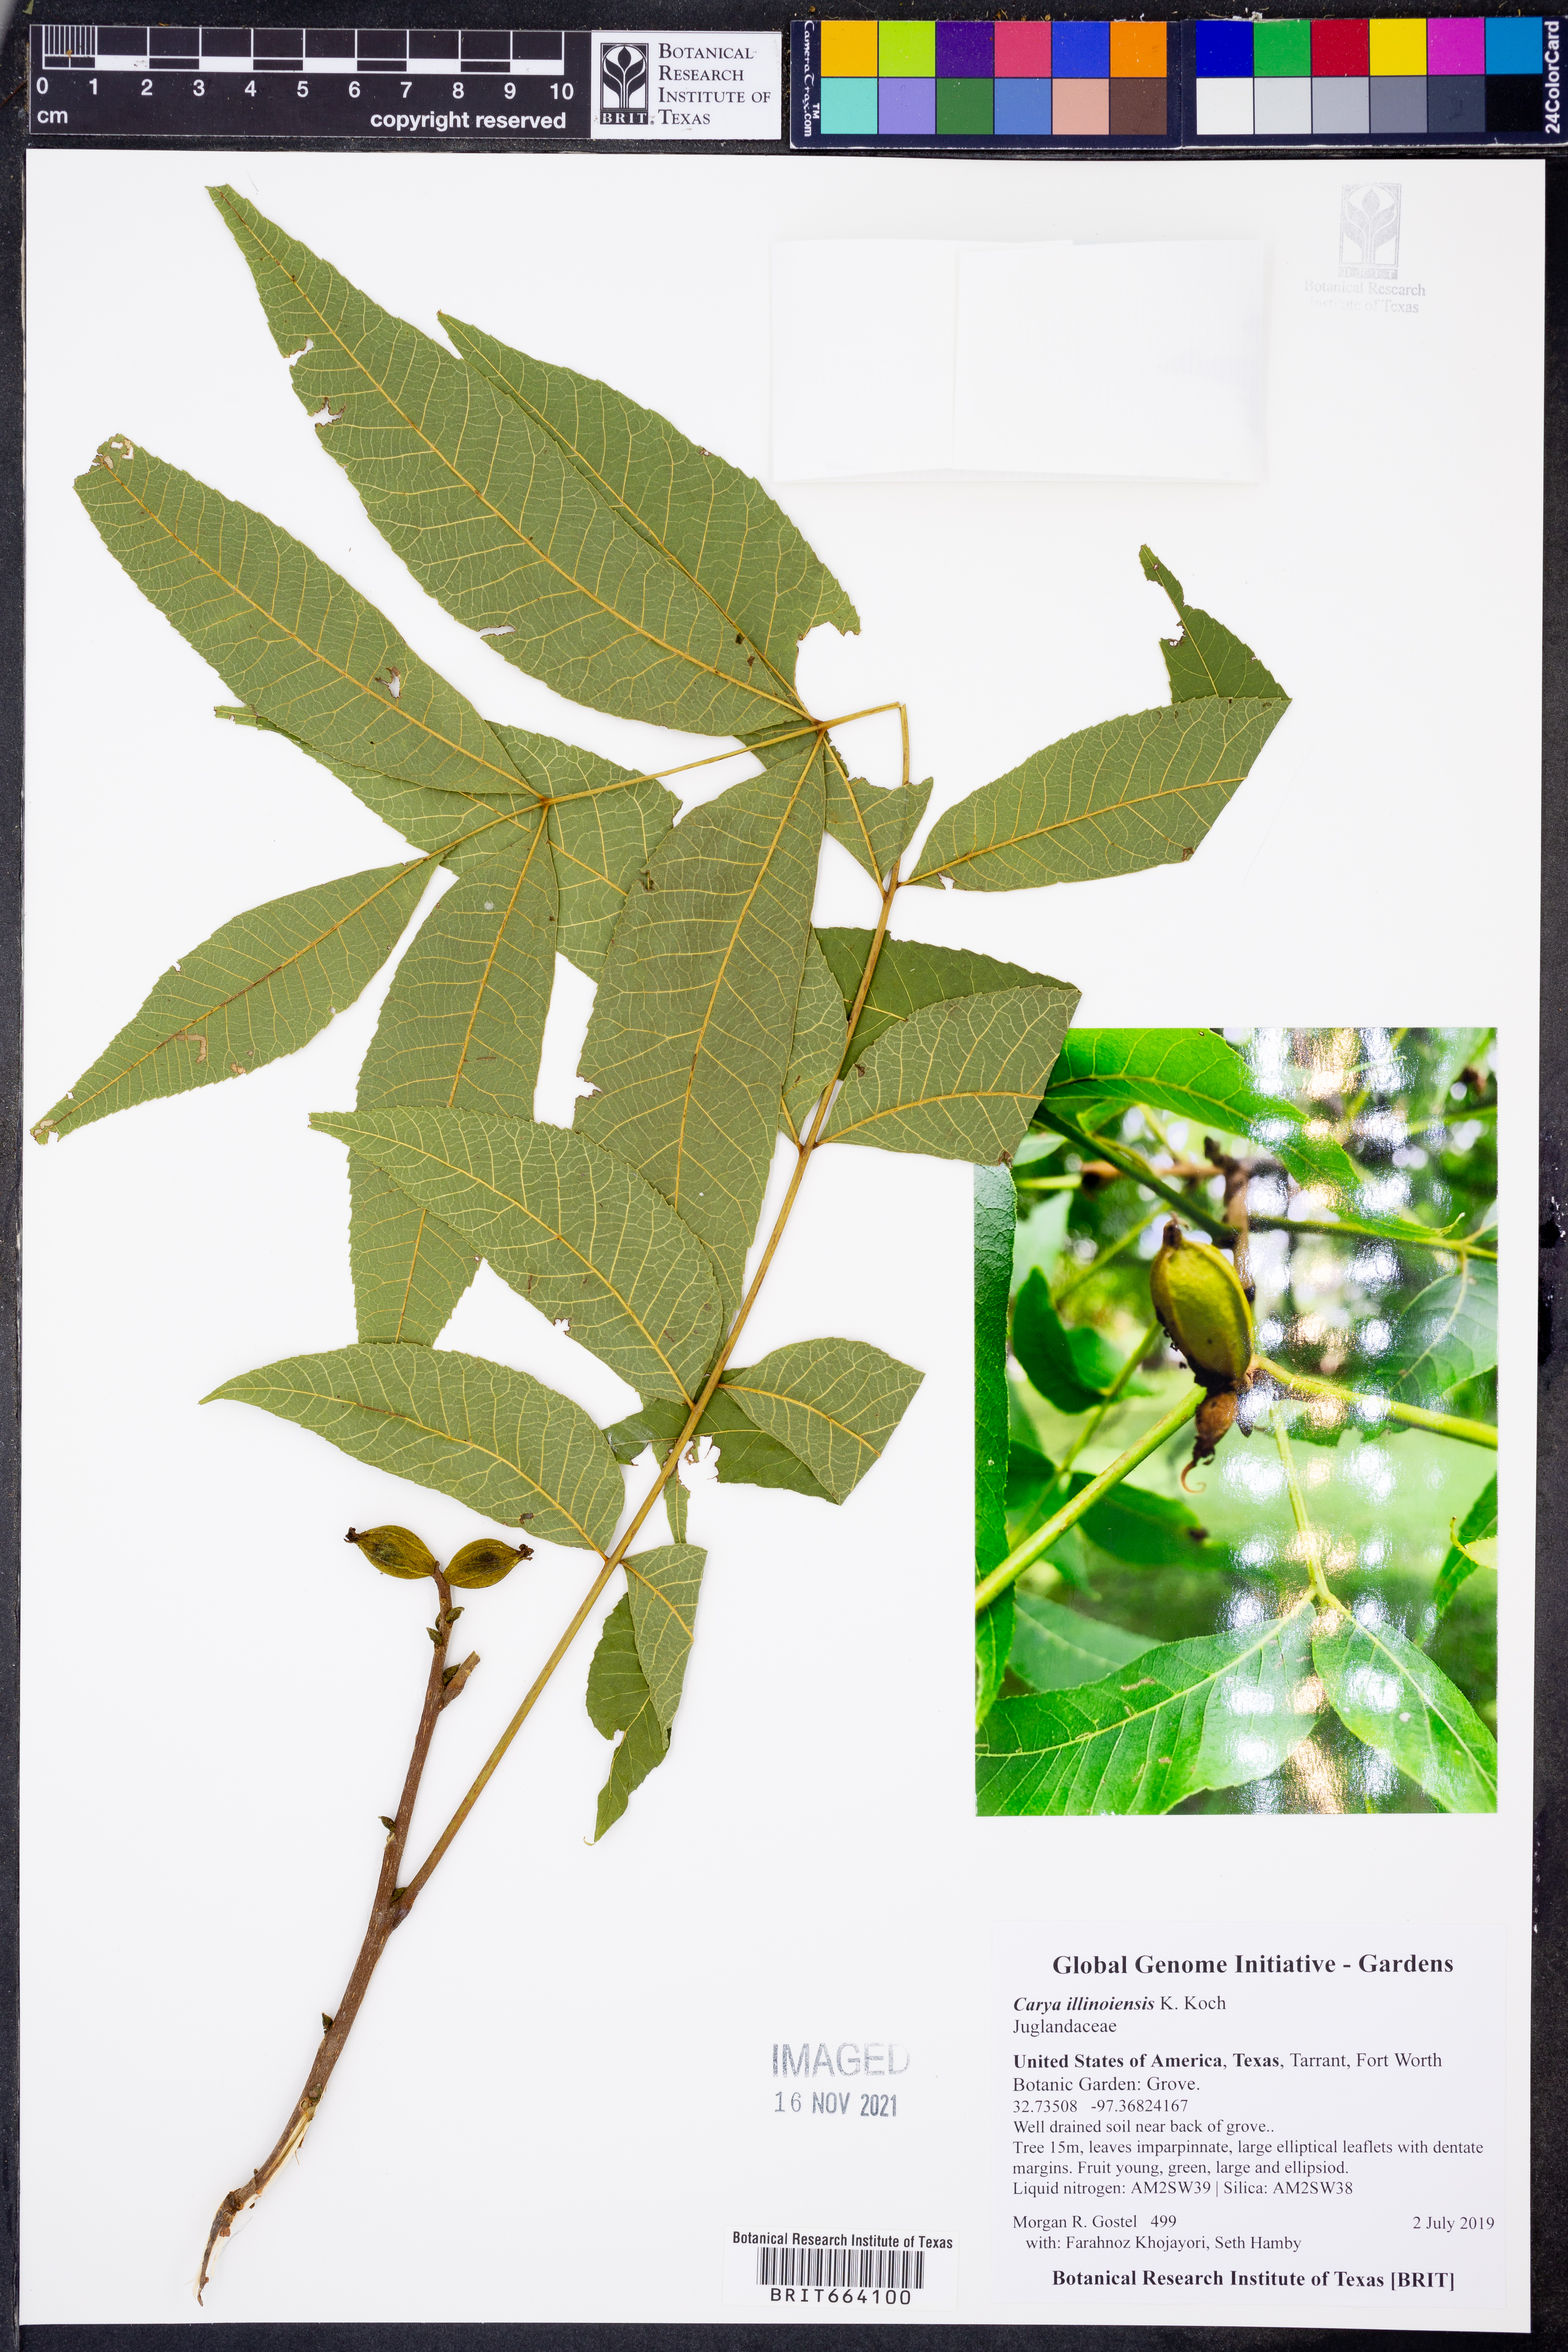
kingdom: Plantae
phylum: Tracheophyta
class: Magnoliopsida
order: Fagales
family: Juglandaceae
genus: Carya
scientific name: Carya
